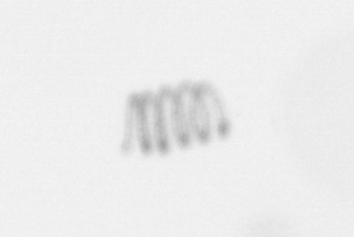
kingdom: Chromista
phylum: Ochrophyta
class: Bacillariophyceae
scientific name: Bacillariophyceae
